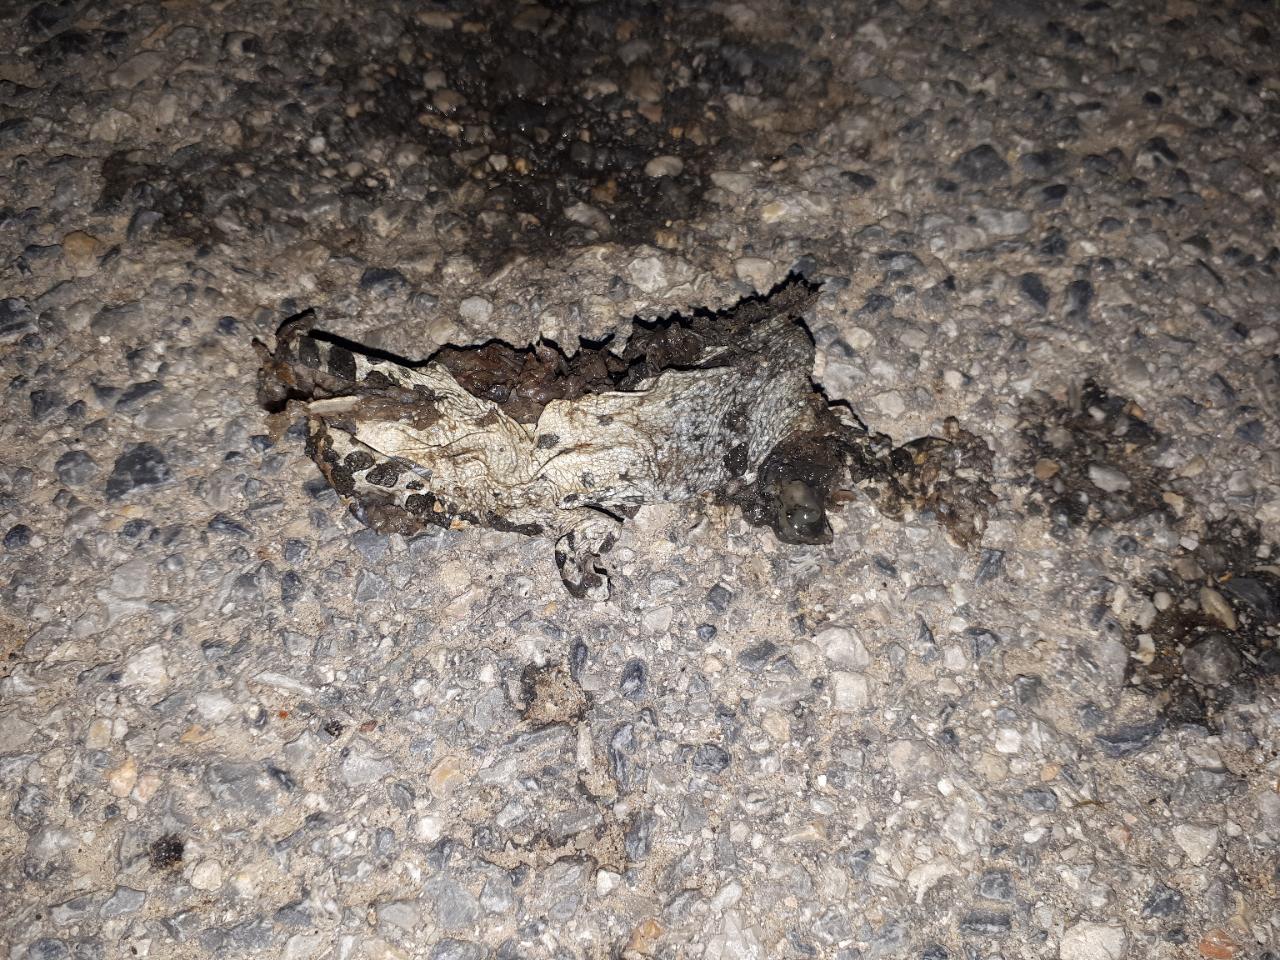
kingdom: Animalia
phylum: Chordata
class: Amphibia
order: Anura
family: Bufonidae
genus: Bufotes
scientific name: Bufotes viridis
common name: European green toad
